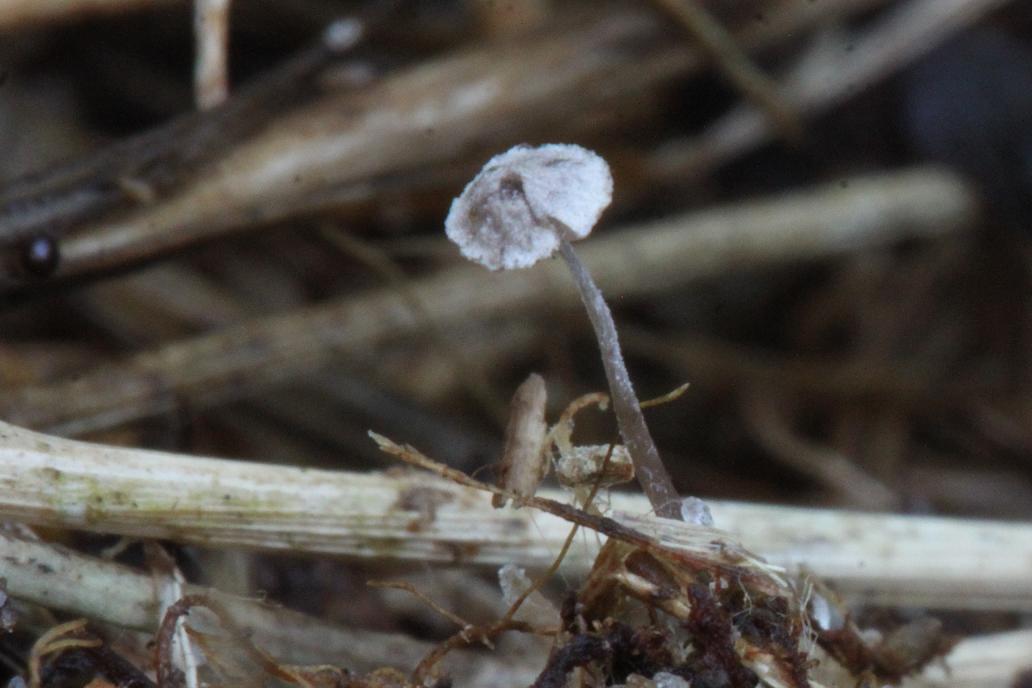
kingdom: Fungi
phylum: Basidiomycota
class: Agaricomycetes
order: Agaricales
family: Tricholomataceae
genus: Pseudobaeospora
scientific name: Pseudobaeospora celluloderma
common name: ametyst-røghat
